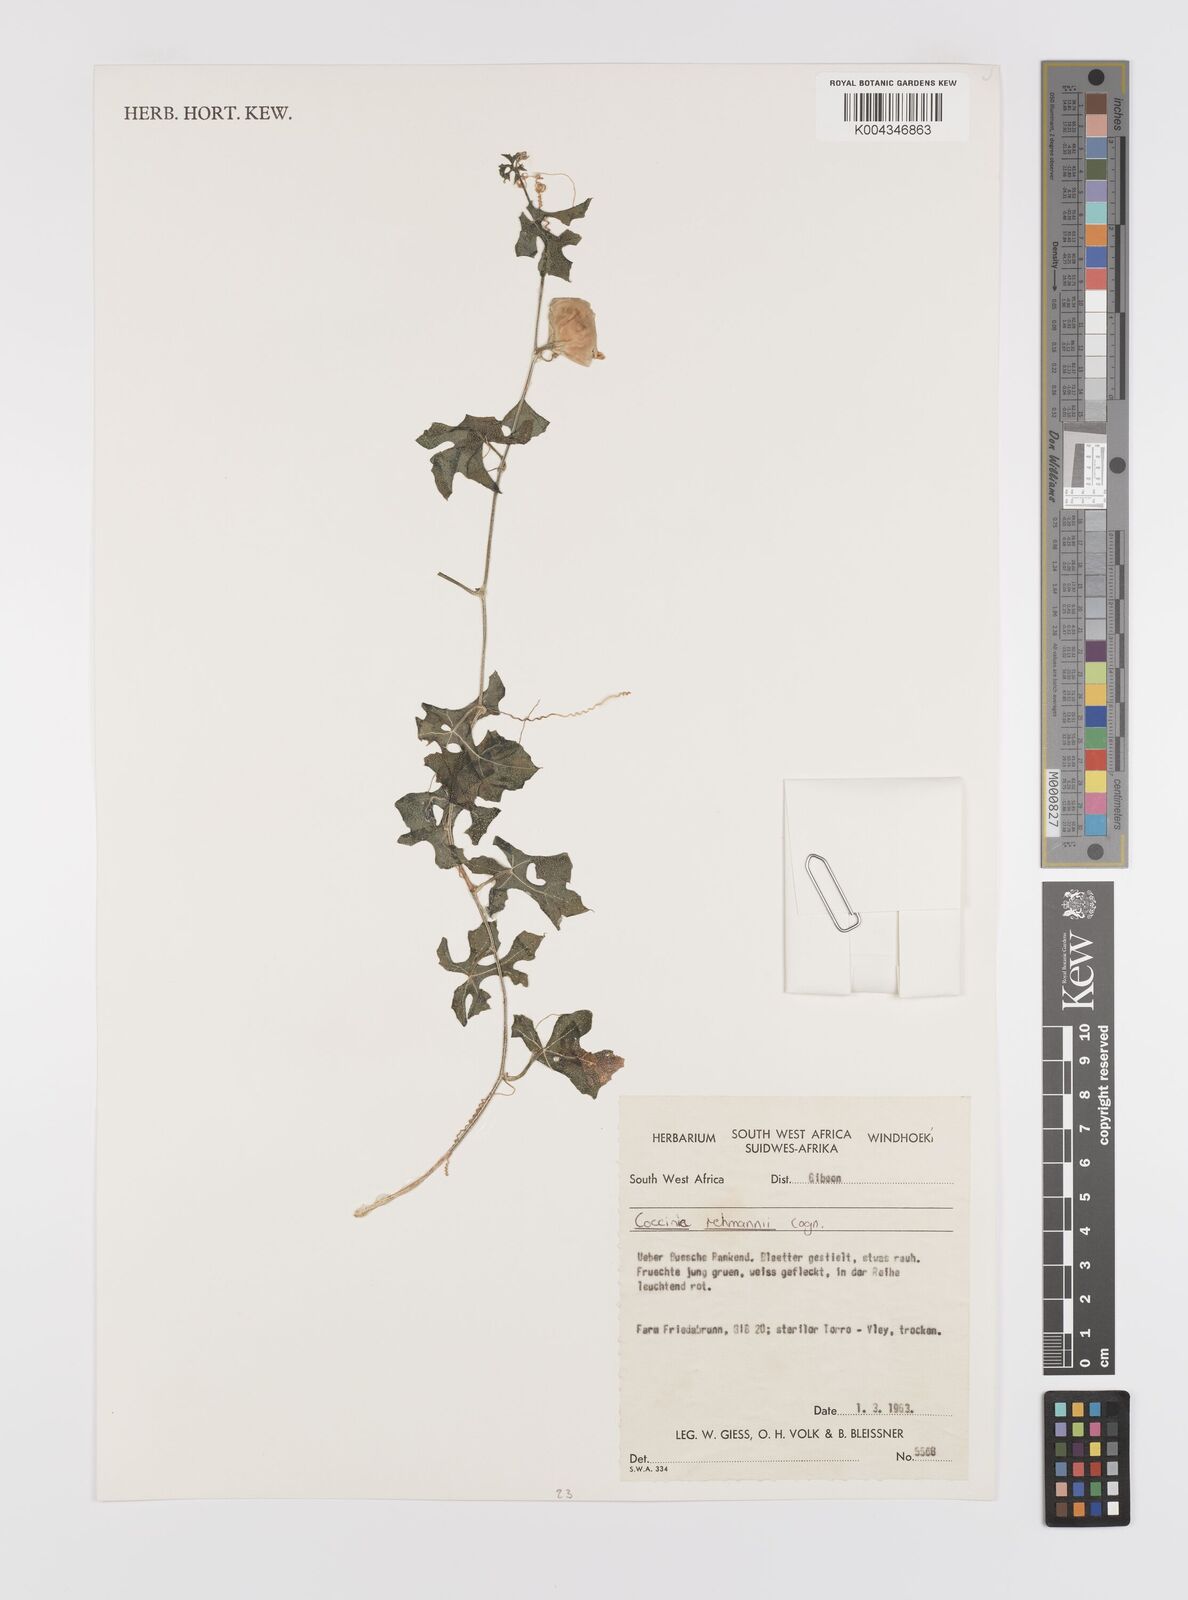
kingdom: Plantae
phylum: Tracheophyta
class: Magnoliopsida
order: Cucurbitales
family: Cucurbitaceae
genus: Coccinia
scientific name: Coccinia rehmannii
